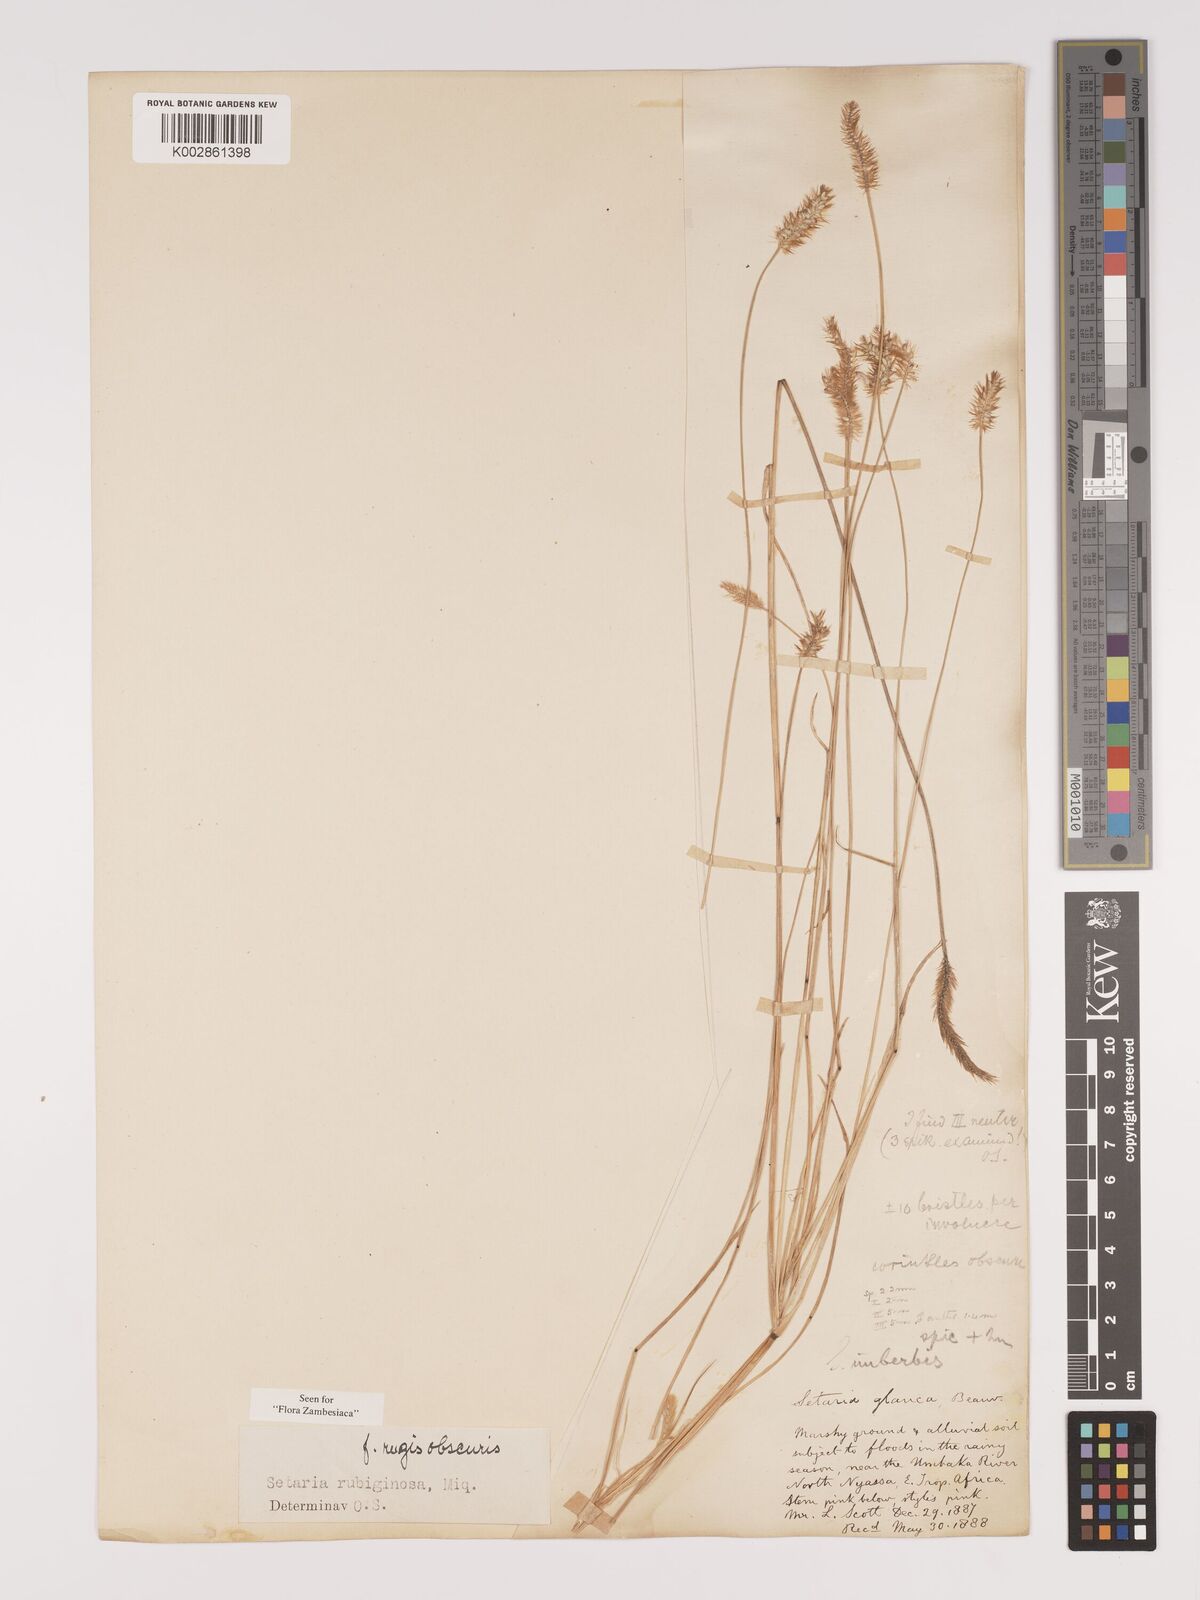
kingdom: Plantae
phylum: Tracheophyta
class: Liliopsida
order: Poales
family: Poaceae
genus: Setaria
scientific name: Setaria pumila
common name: Yellow bristle-grass
